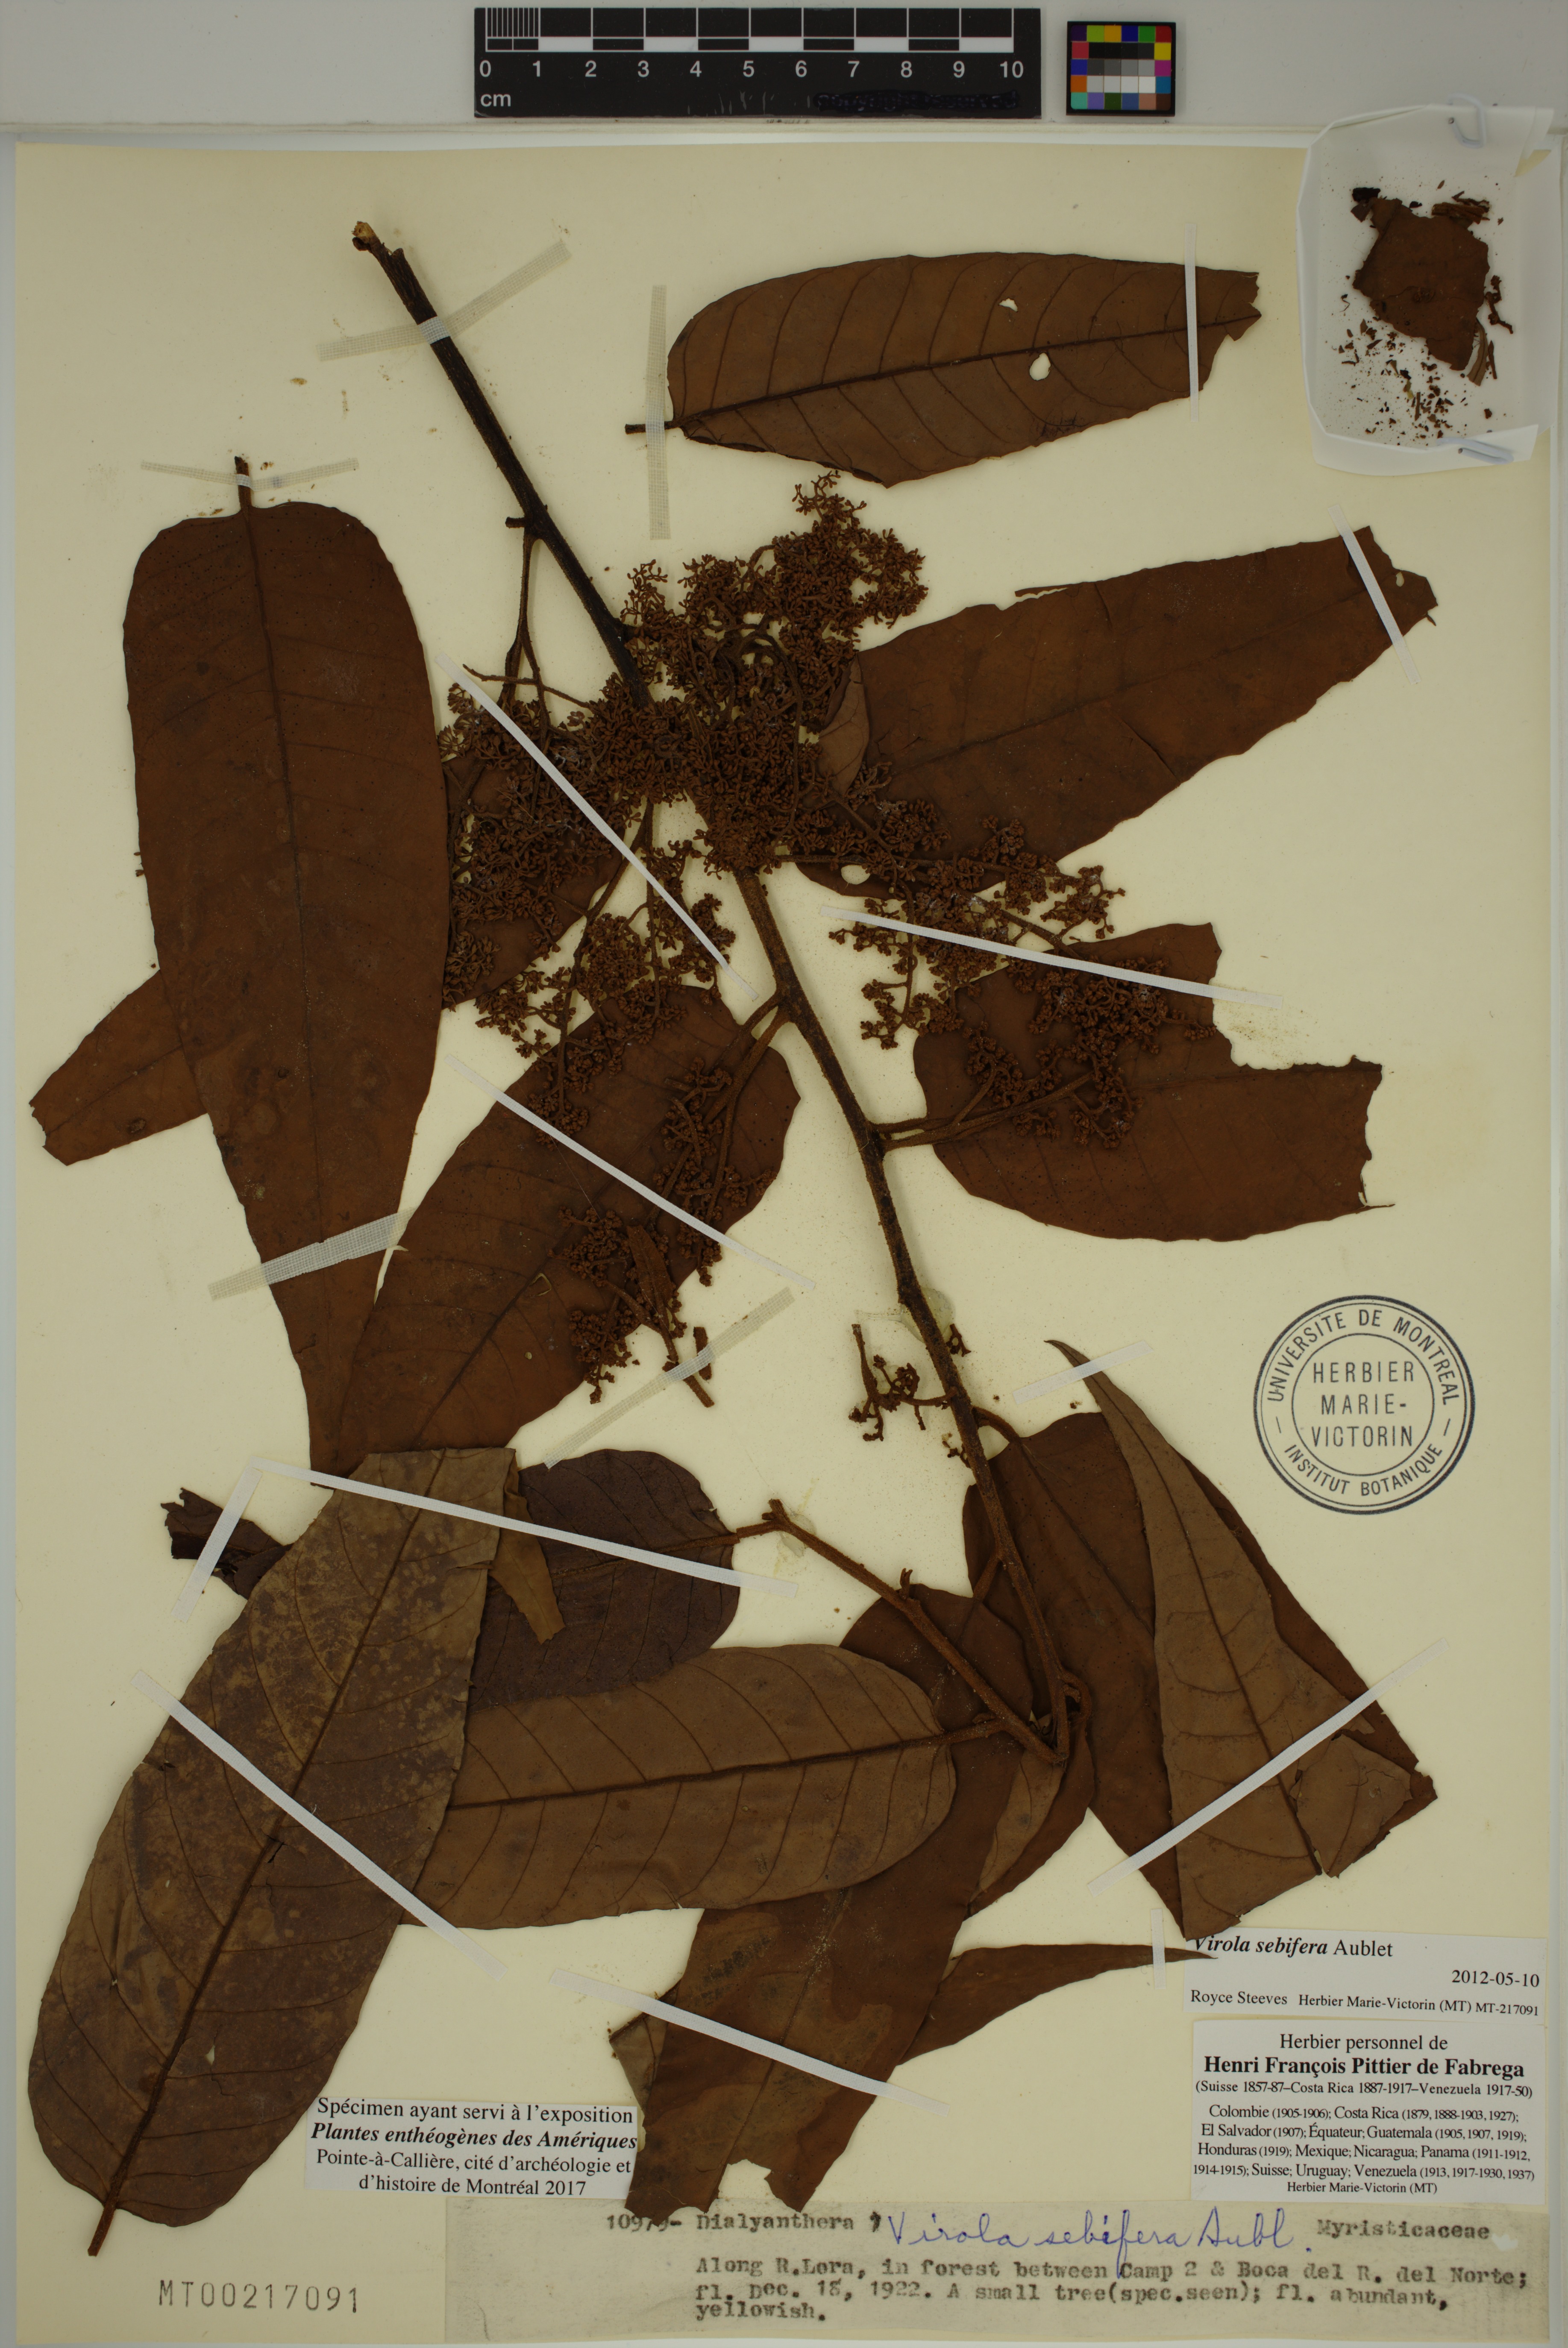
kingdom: Plantae
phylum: Tracheophyta
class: Magnoliopsida
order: Magnoliales
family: Myristicaceae
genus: Virola
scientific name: Virola sebifera
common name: Red ucuuba
